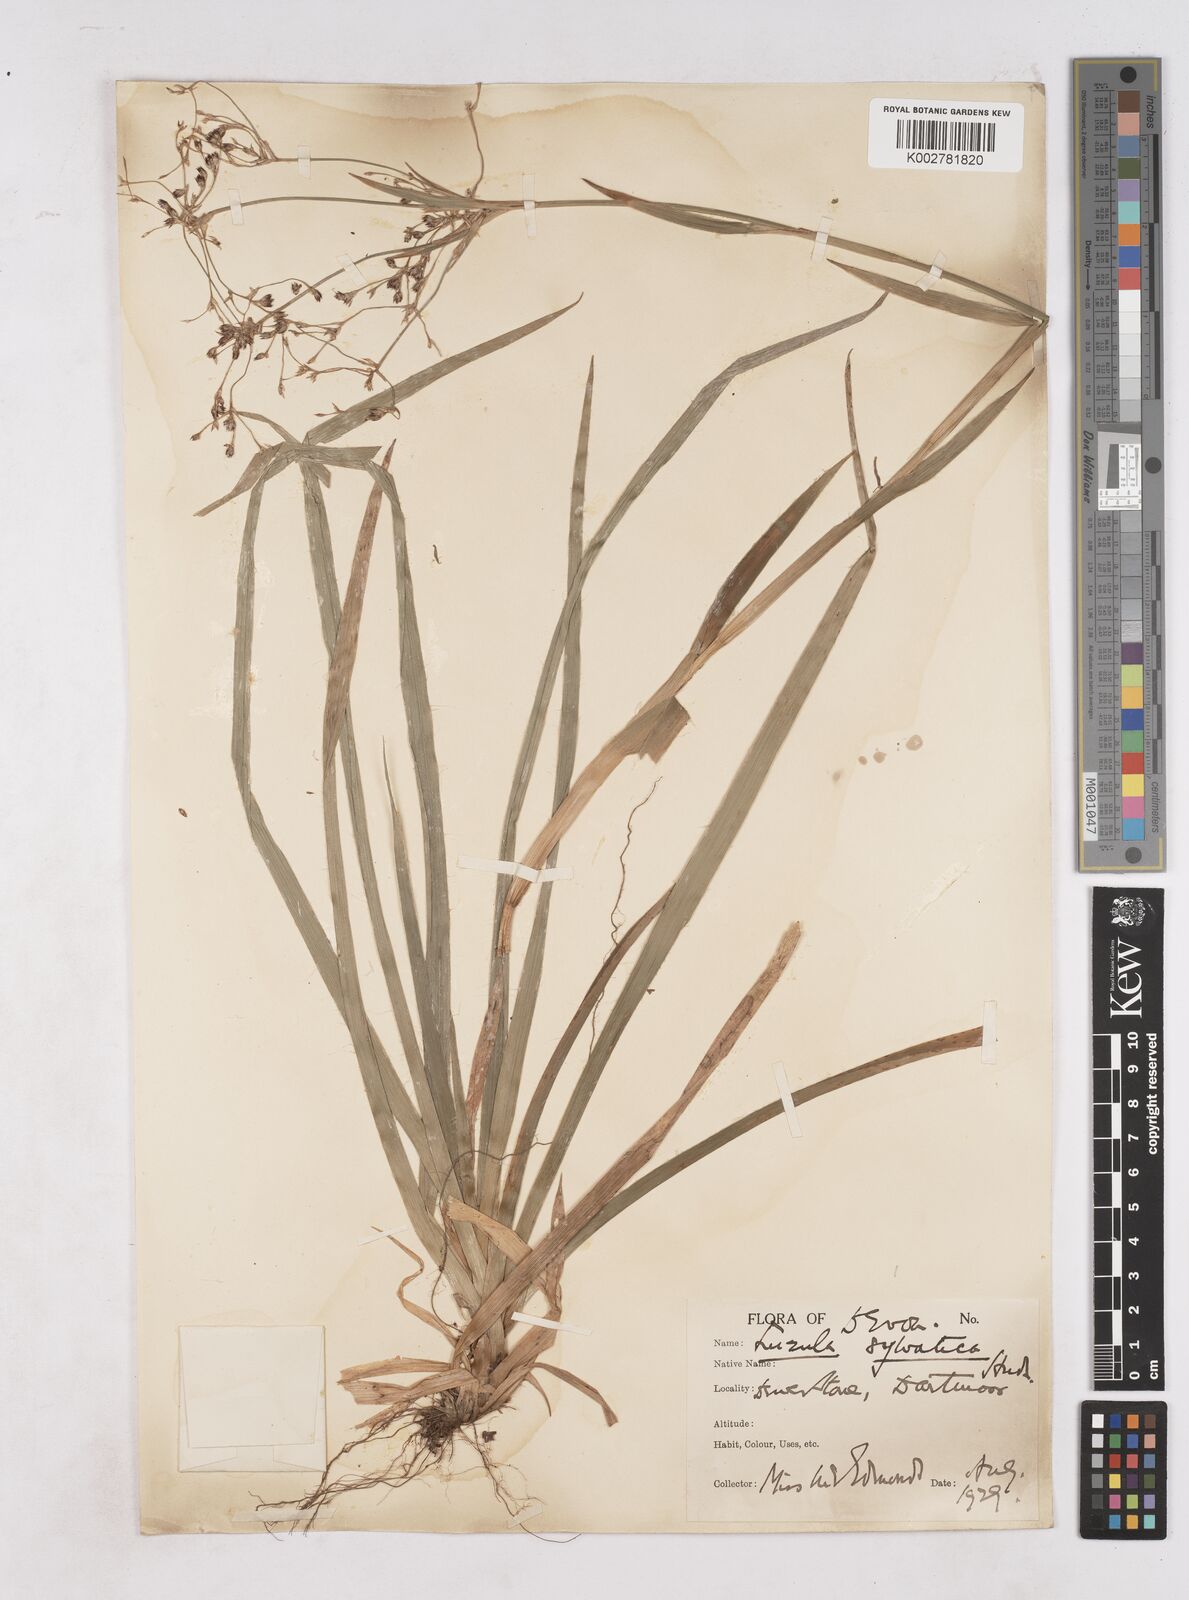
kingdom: Plantae
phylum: Tracheophyta
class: Liliopsida
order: Poales
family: Juncaceae
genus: Luzula
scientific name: Luzula sylvatica
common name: Great wood-rush
